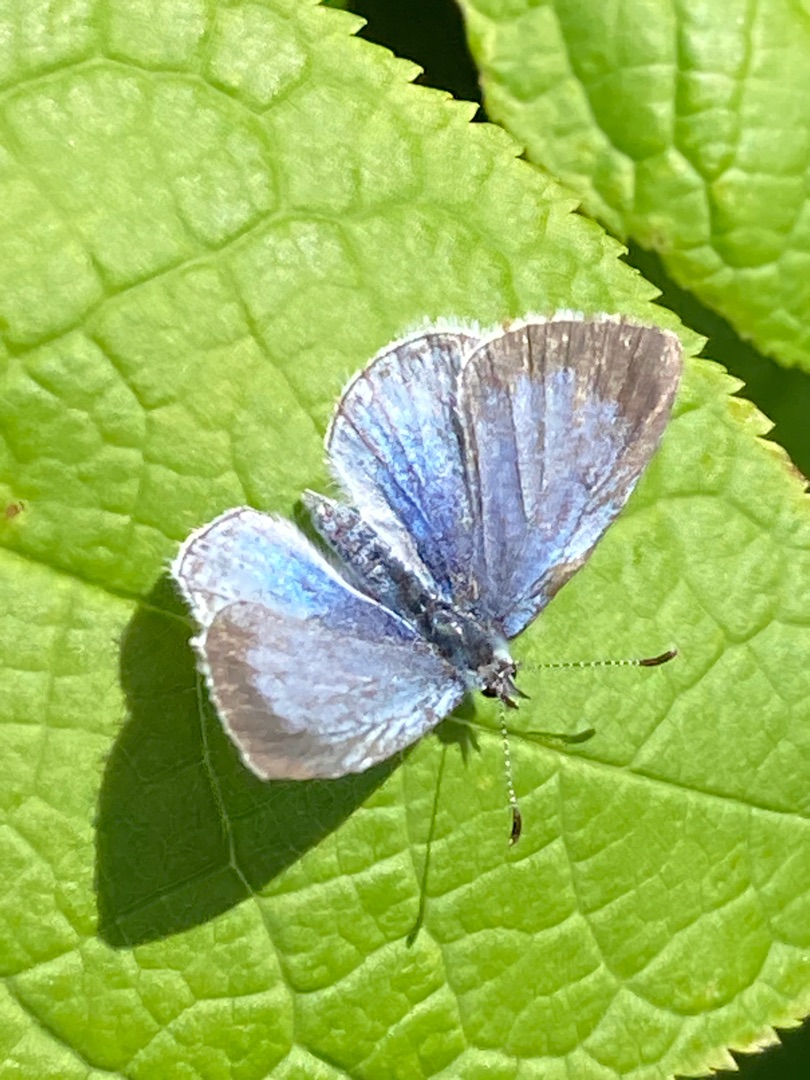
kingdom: Animalia
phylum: Arthropoda
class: Insecta
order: Lepidoptera
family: Lycaenidae
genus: Celastrina
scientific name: Celastrina argiolus
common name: Skovblåfugl
